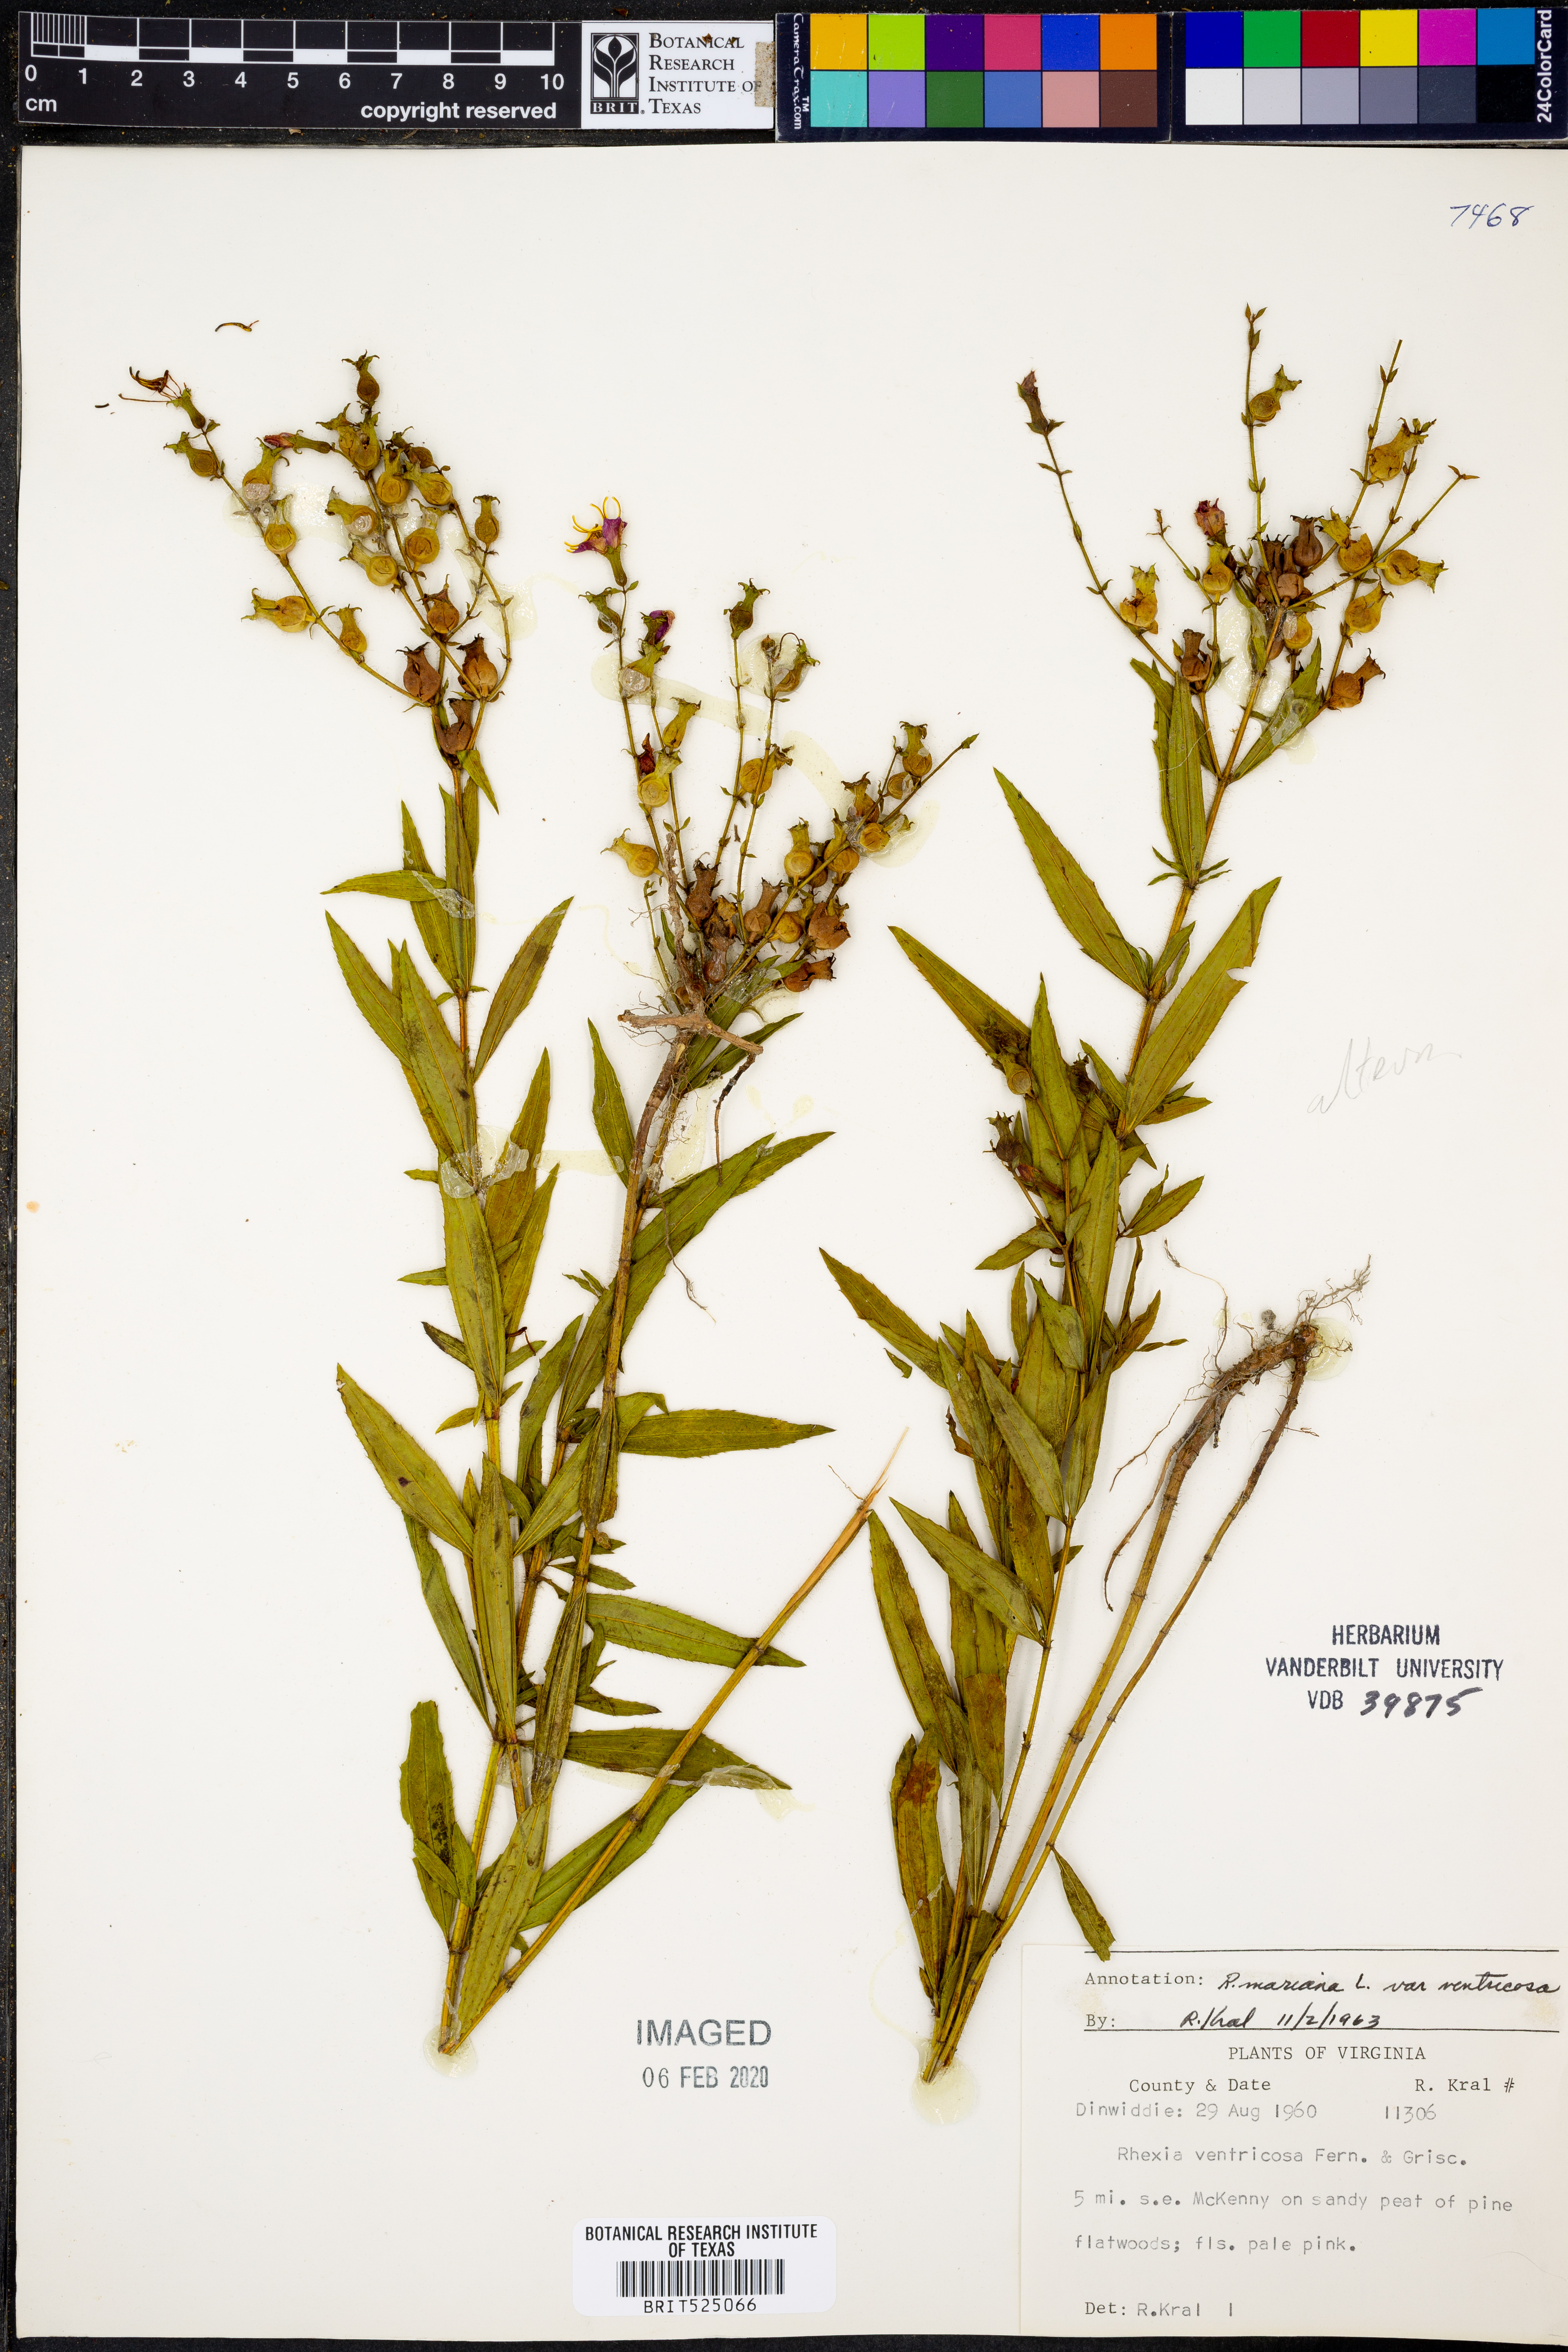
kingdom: Plantae
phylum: Tracheophyta
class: Magnoliopsida
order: Myrtales
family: Melastomataceae
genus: Rhexia
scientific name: Rhexia ventricosa
